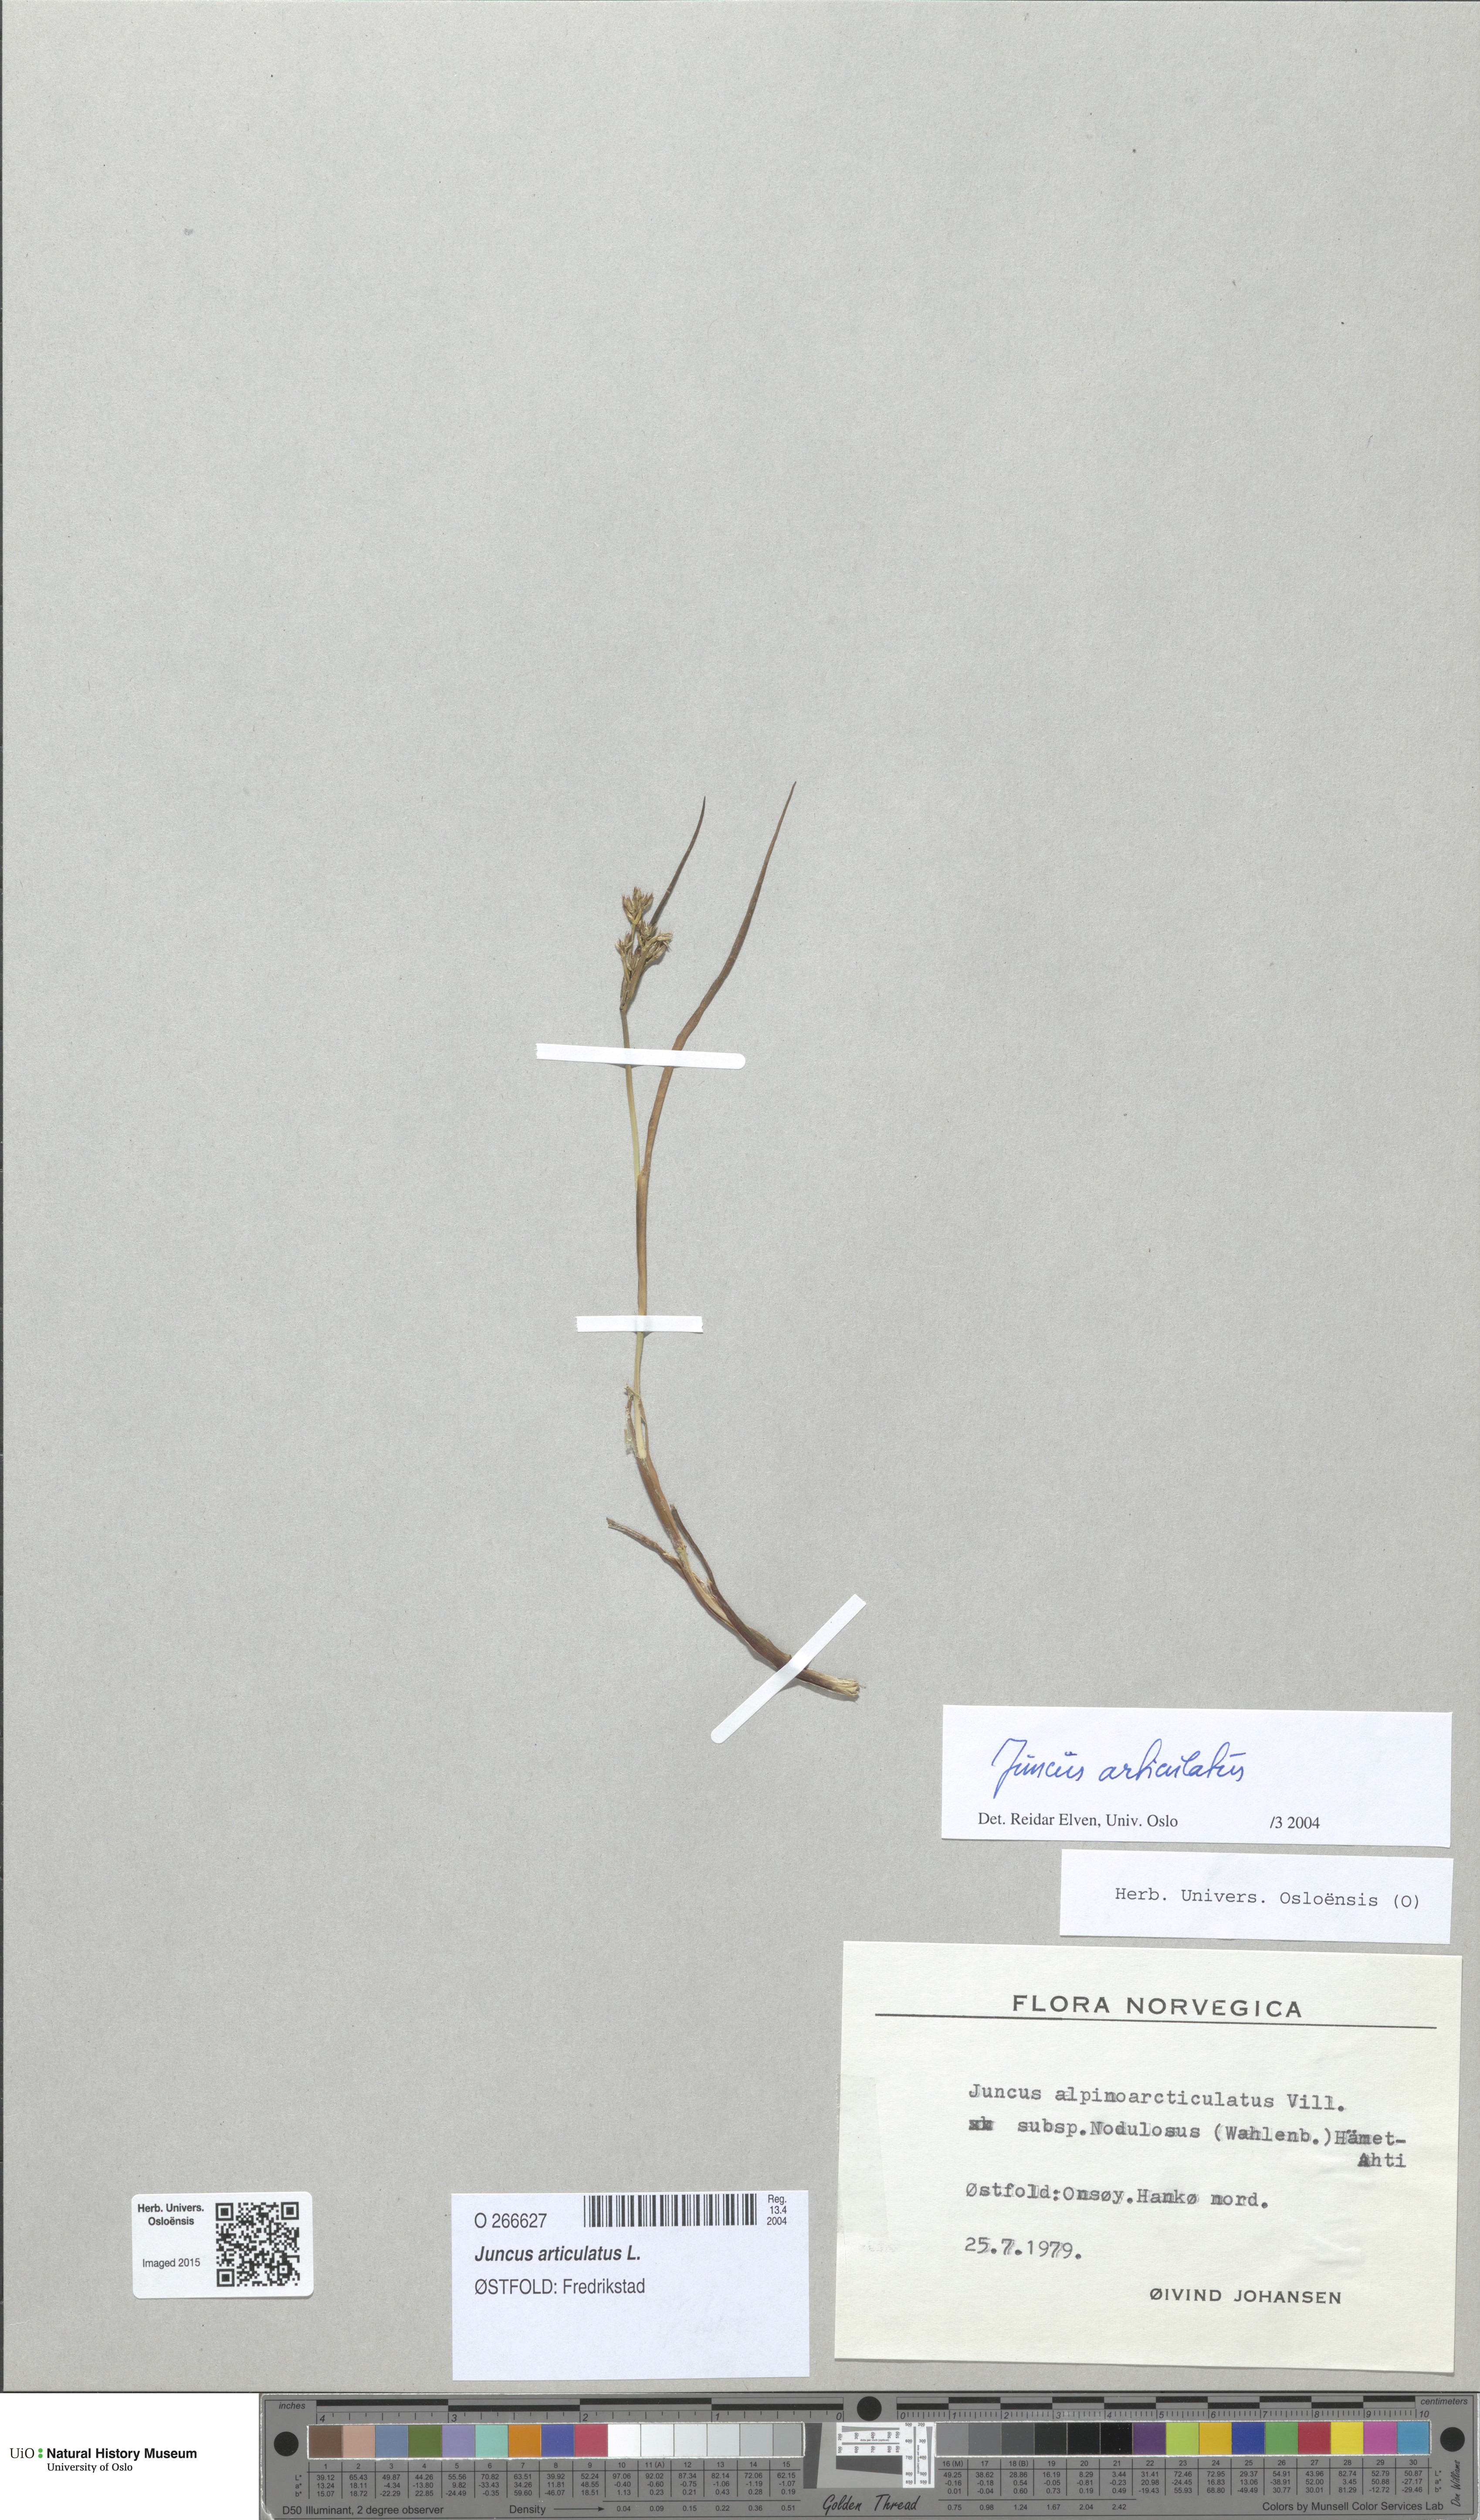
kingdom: Plantae
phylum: Tracheophyta
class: Liliopsida
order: Poales
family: Juncaceae
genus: Juncus
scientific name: Juncus articulatus
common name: Jointed rush
